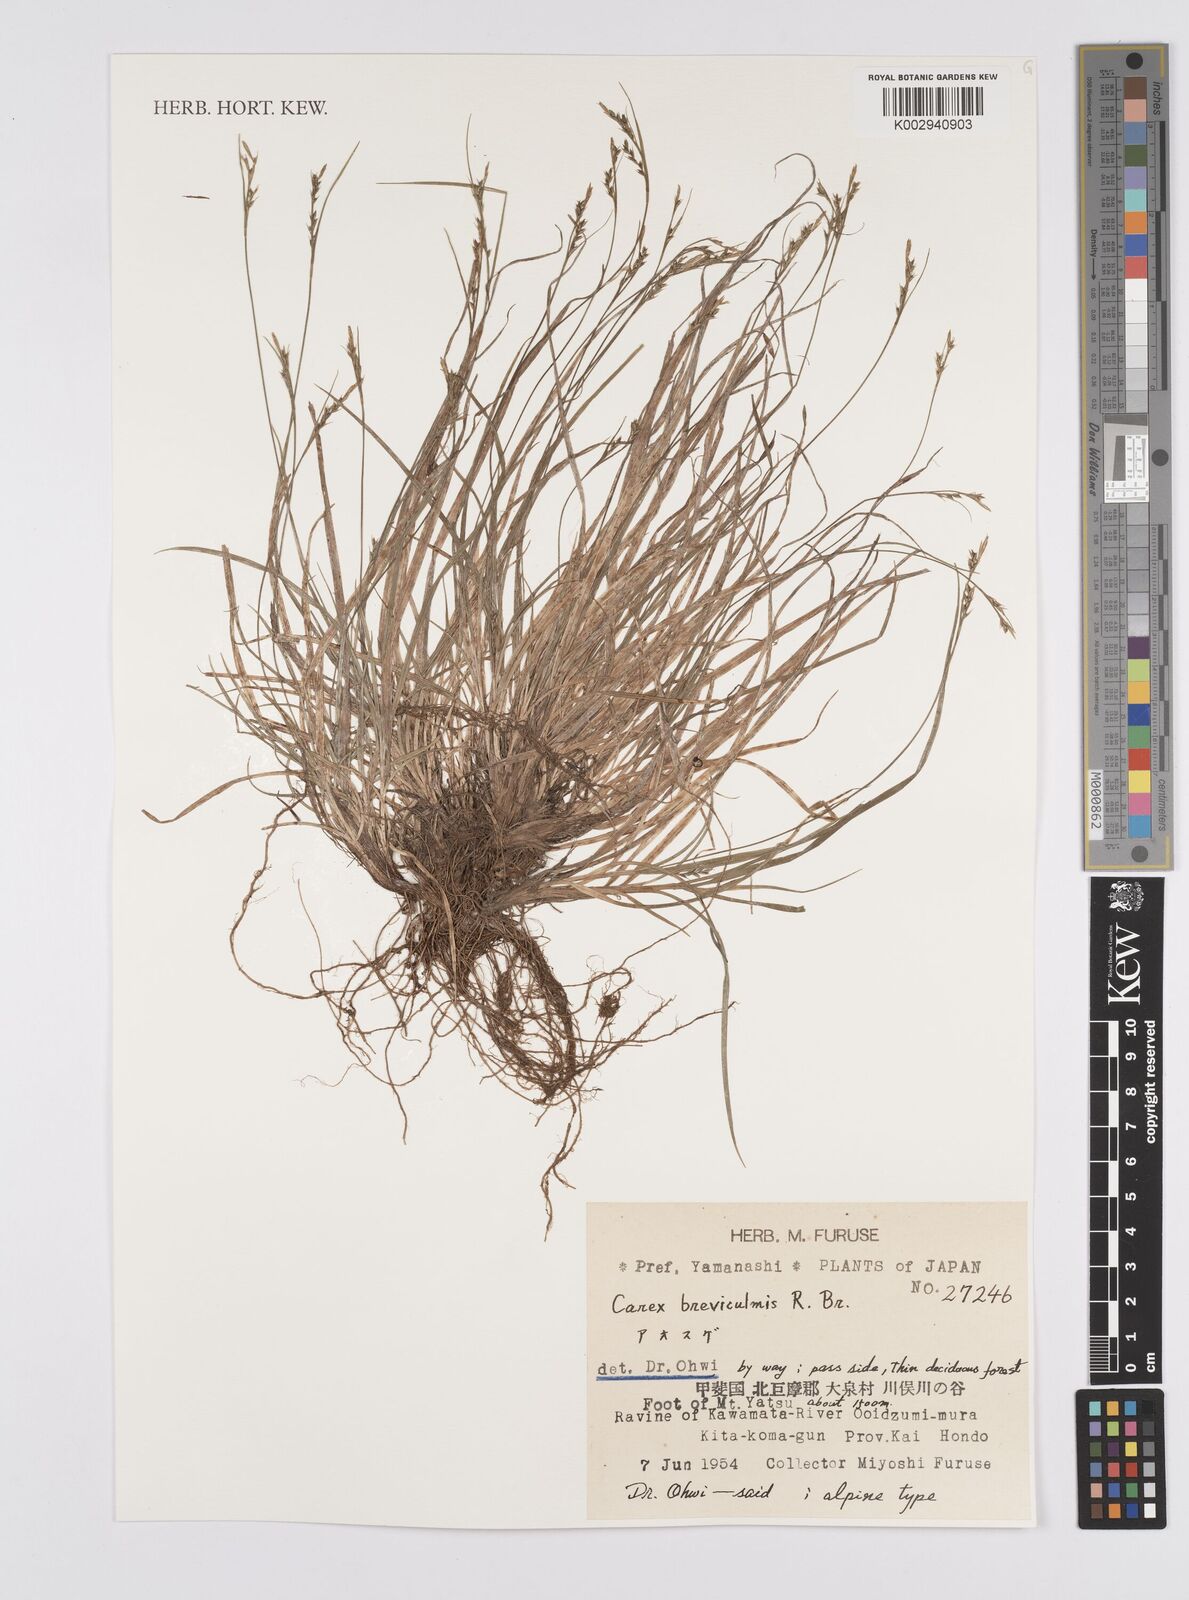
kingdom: Plantae
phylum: Tracheophyta
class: Liliopsida
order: Poales
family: Cyperaceae
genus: Carex
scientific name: Carex breviculmis
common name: Asian shortstem sedge
